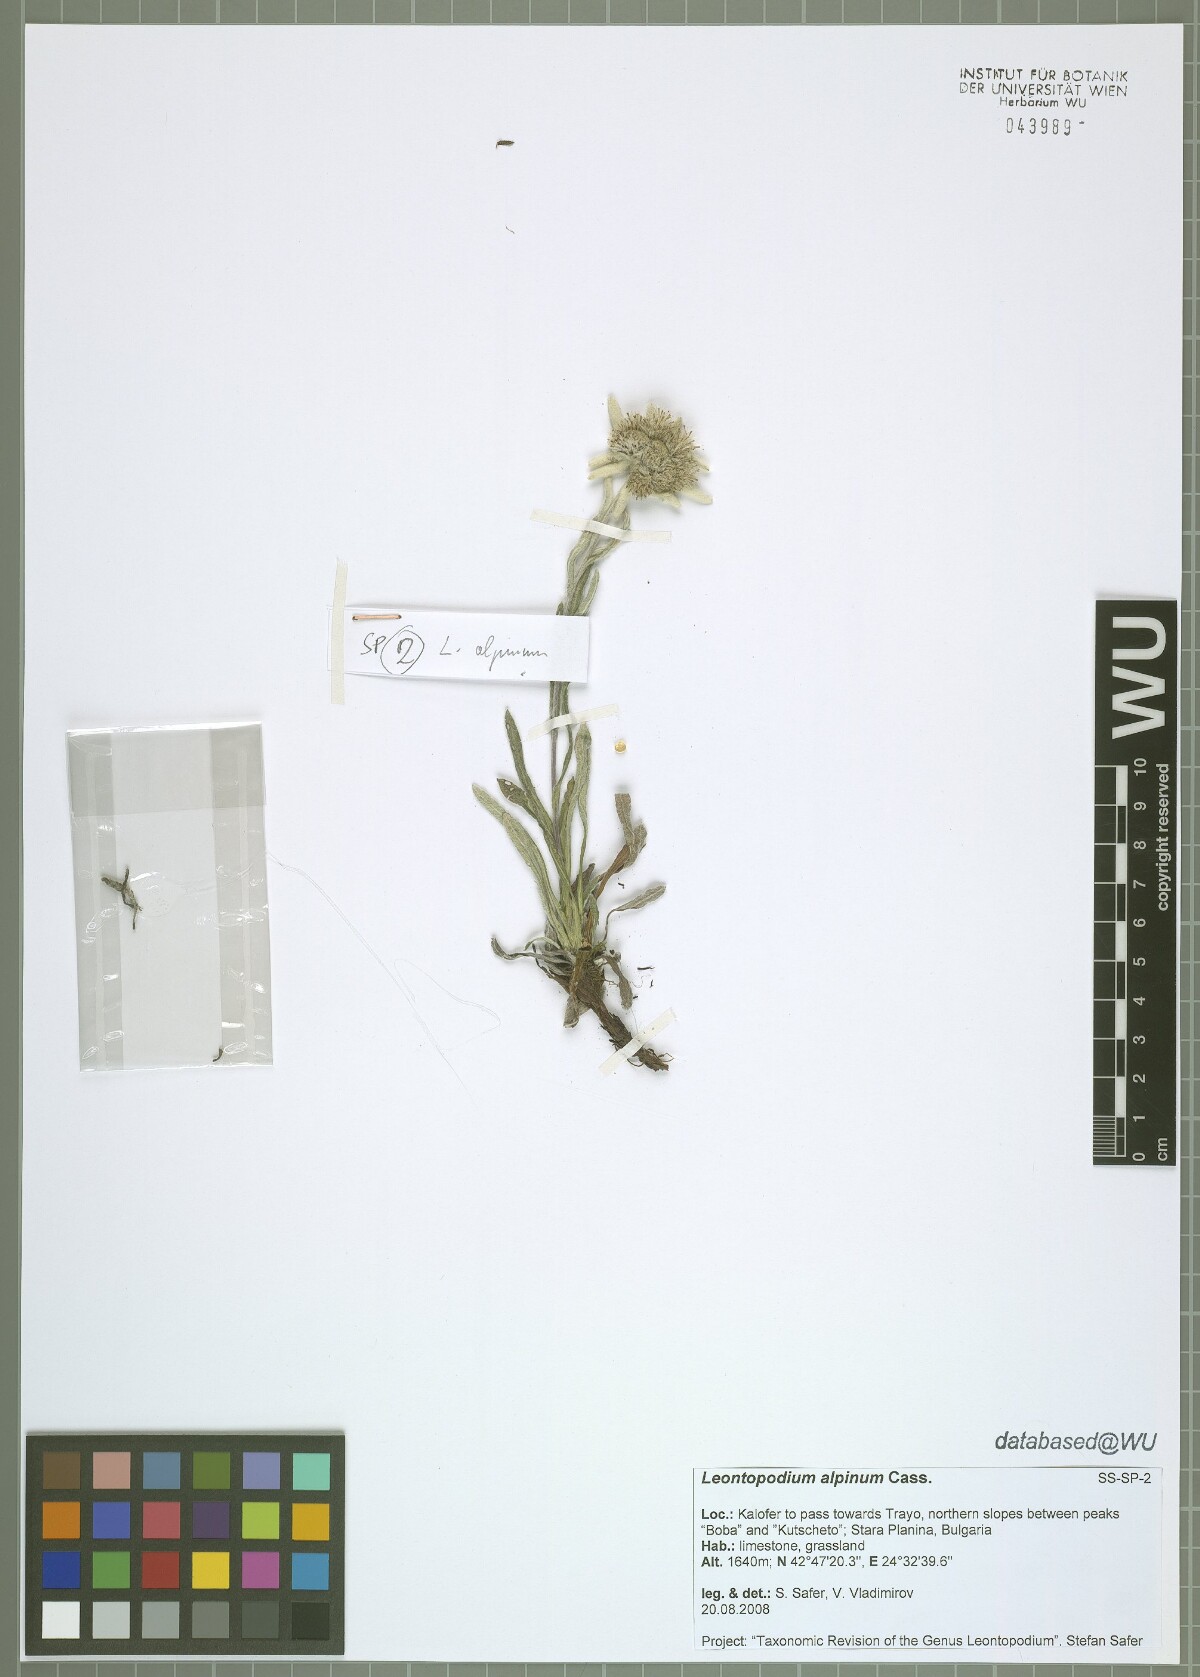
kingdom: Plantae
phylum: Tracheophyta
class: Magnoliopsida
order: Asterales
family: Asteraceae
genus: Leontopodium
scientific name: Leontopodium nivale
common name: Edelweiss
